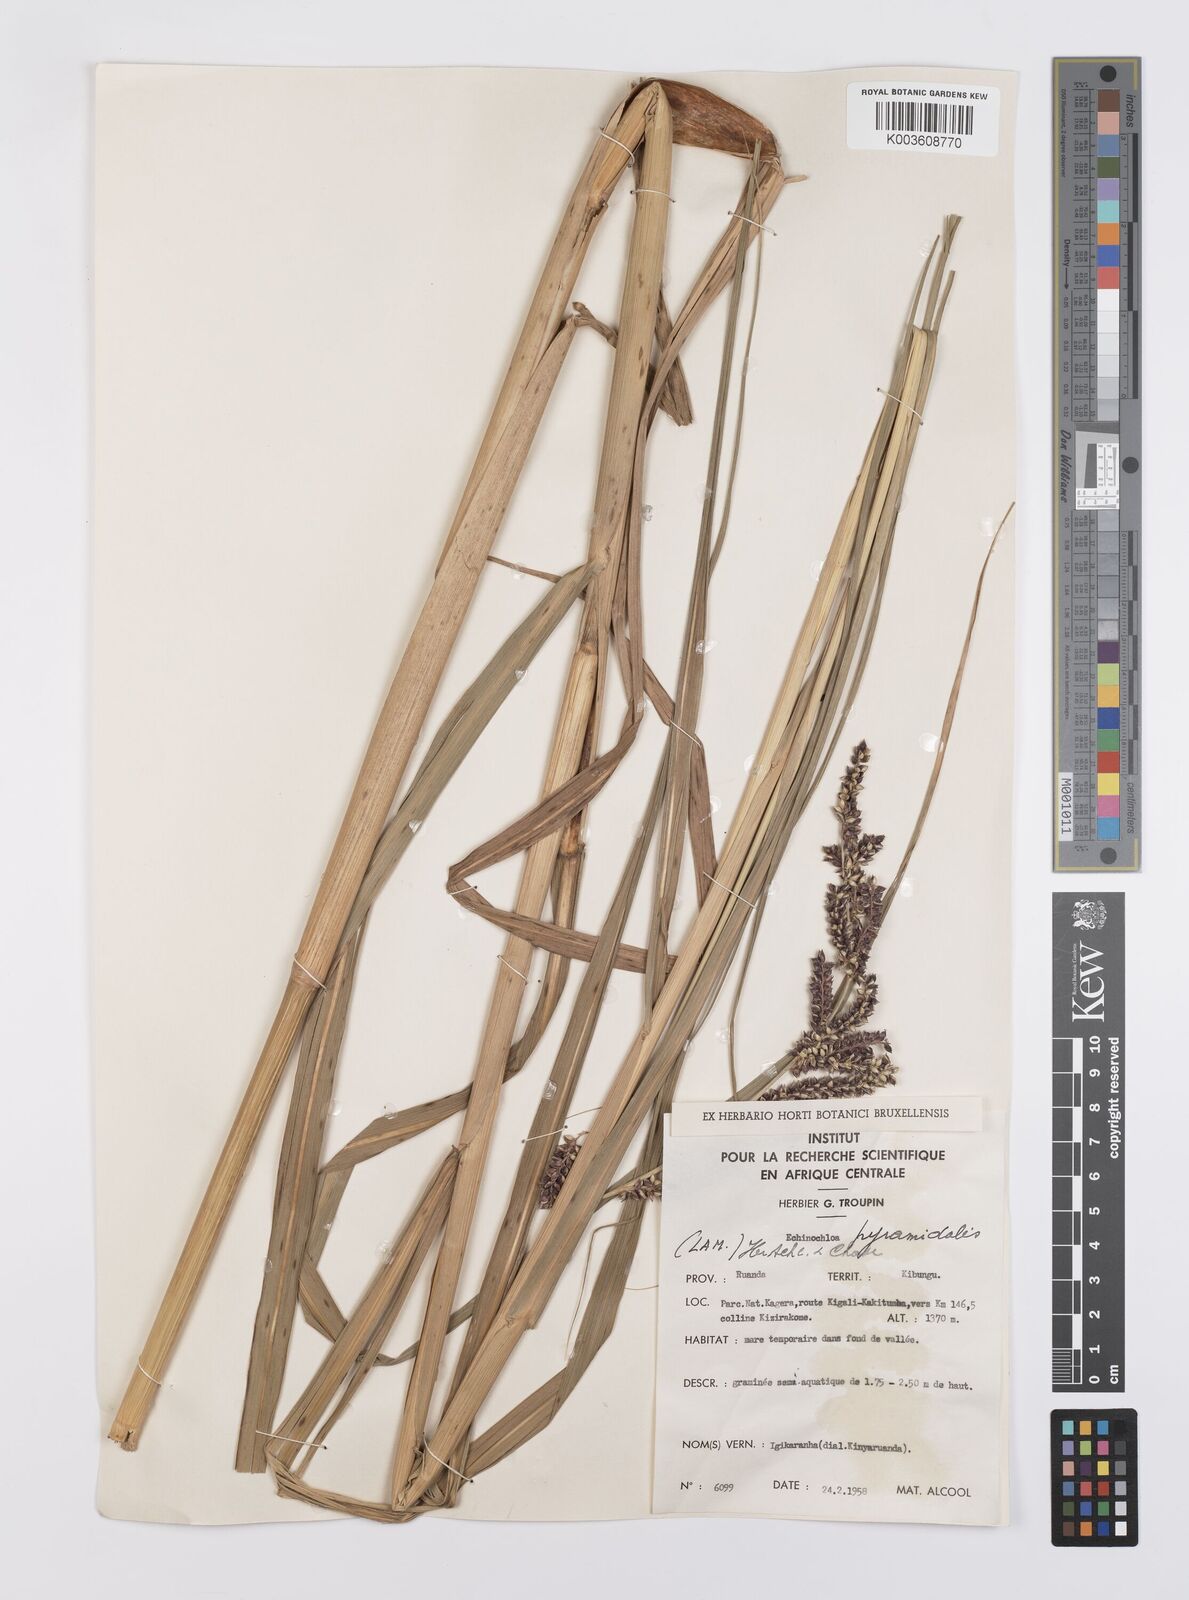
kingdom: Plantae
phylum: Tracheophyta
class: Liliopsida
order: Poales
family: Poaceae
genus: Echinochloa
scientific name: Echinochloa pyramidalis
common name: Antelope grass
